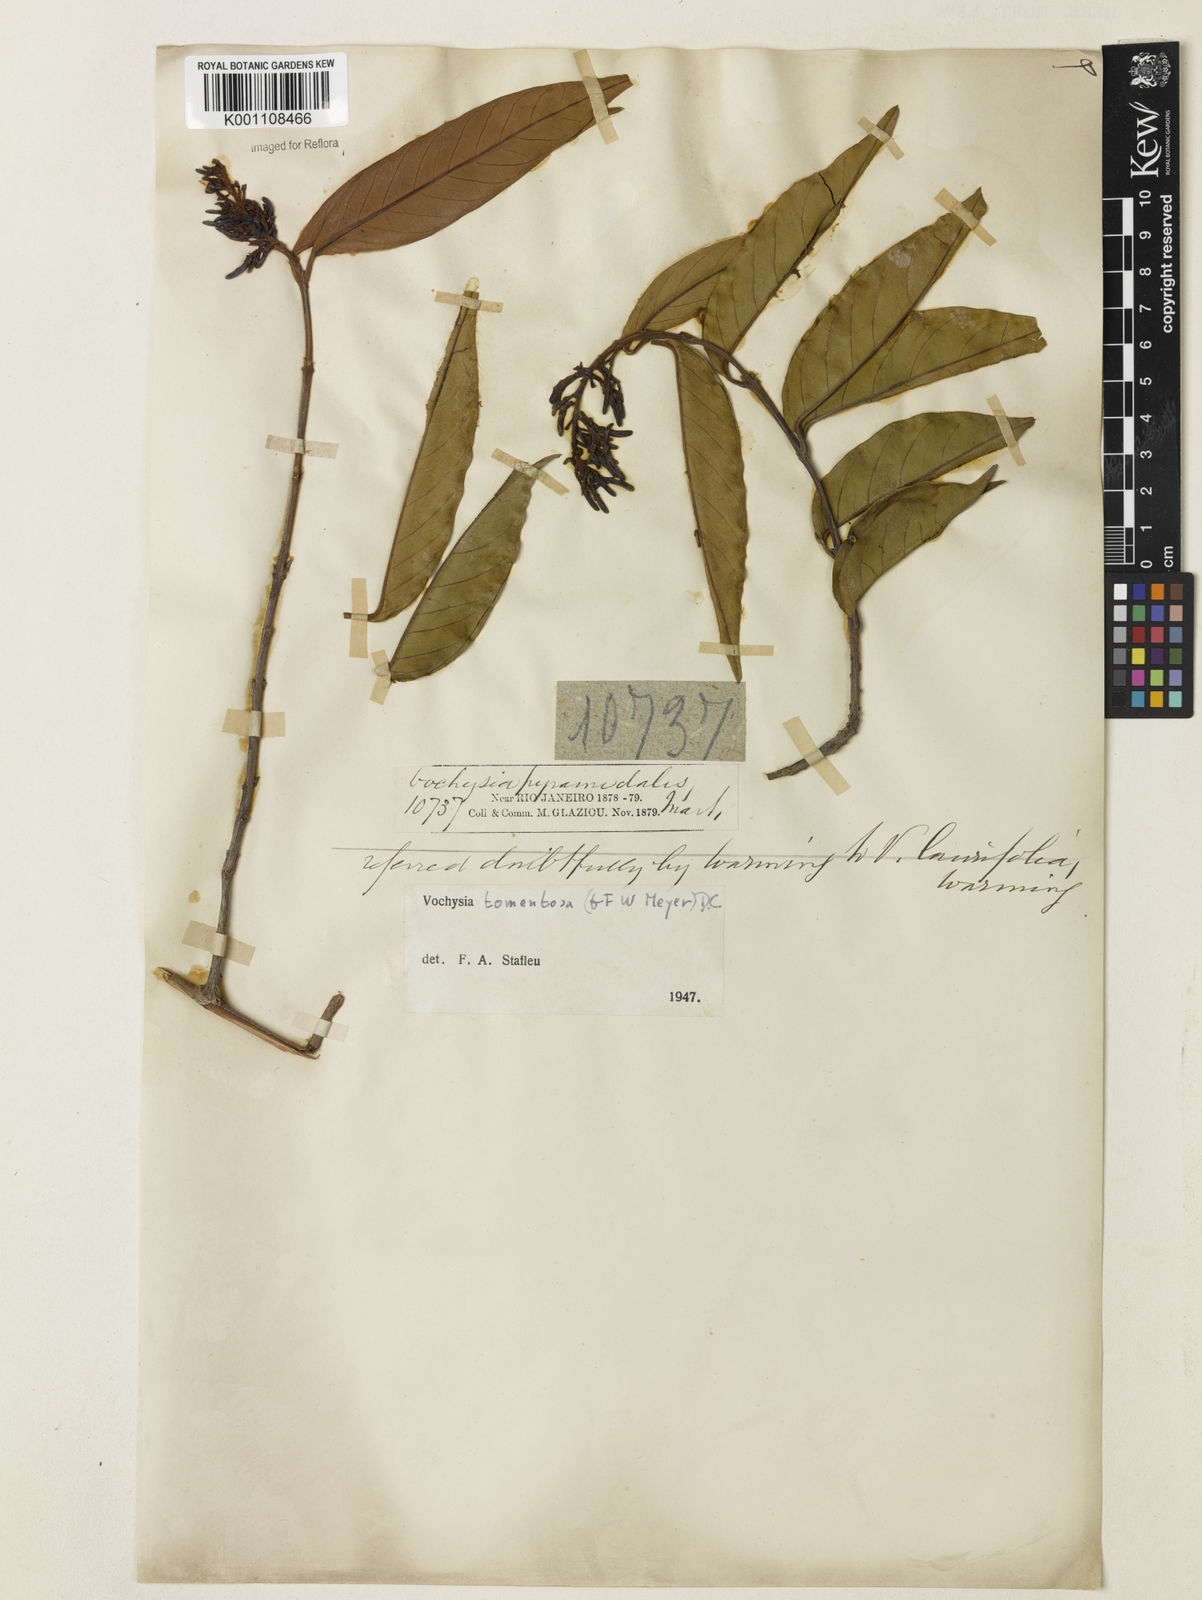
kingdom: Plantae
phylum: Tracheophyta
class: Magnoliopsida
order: Myrtales
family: Vochysiaceae
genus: Vochysia
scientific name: Vochysia tomentosa
